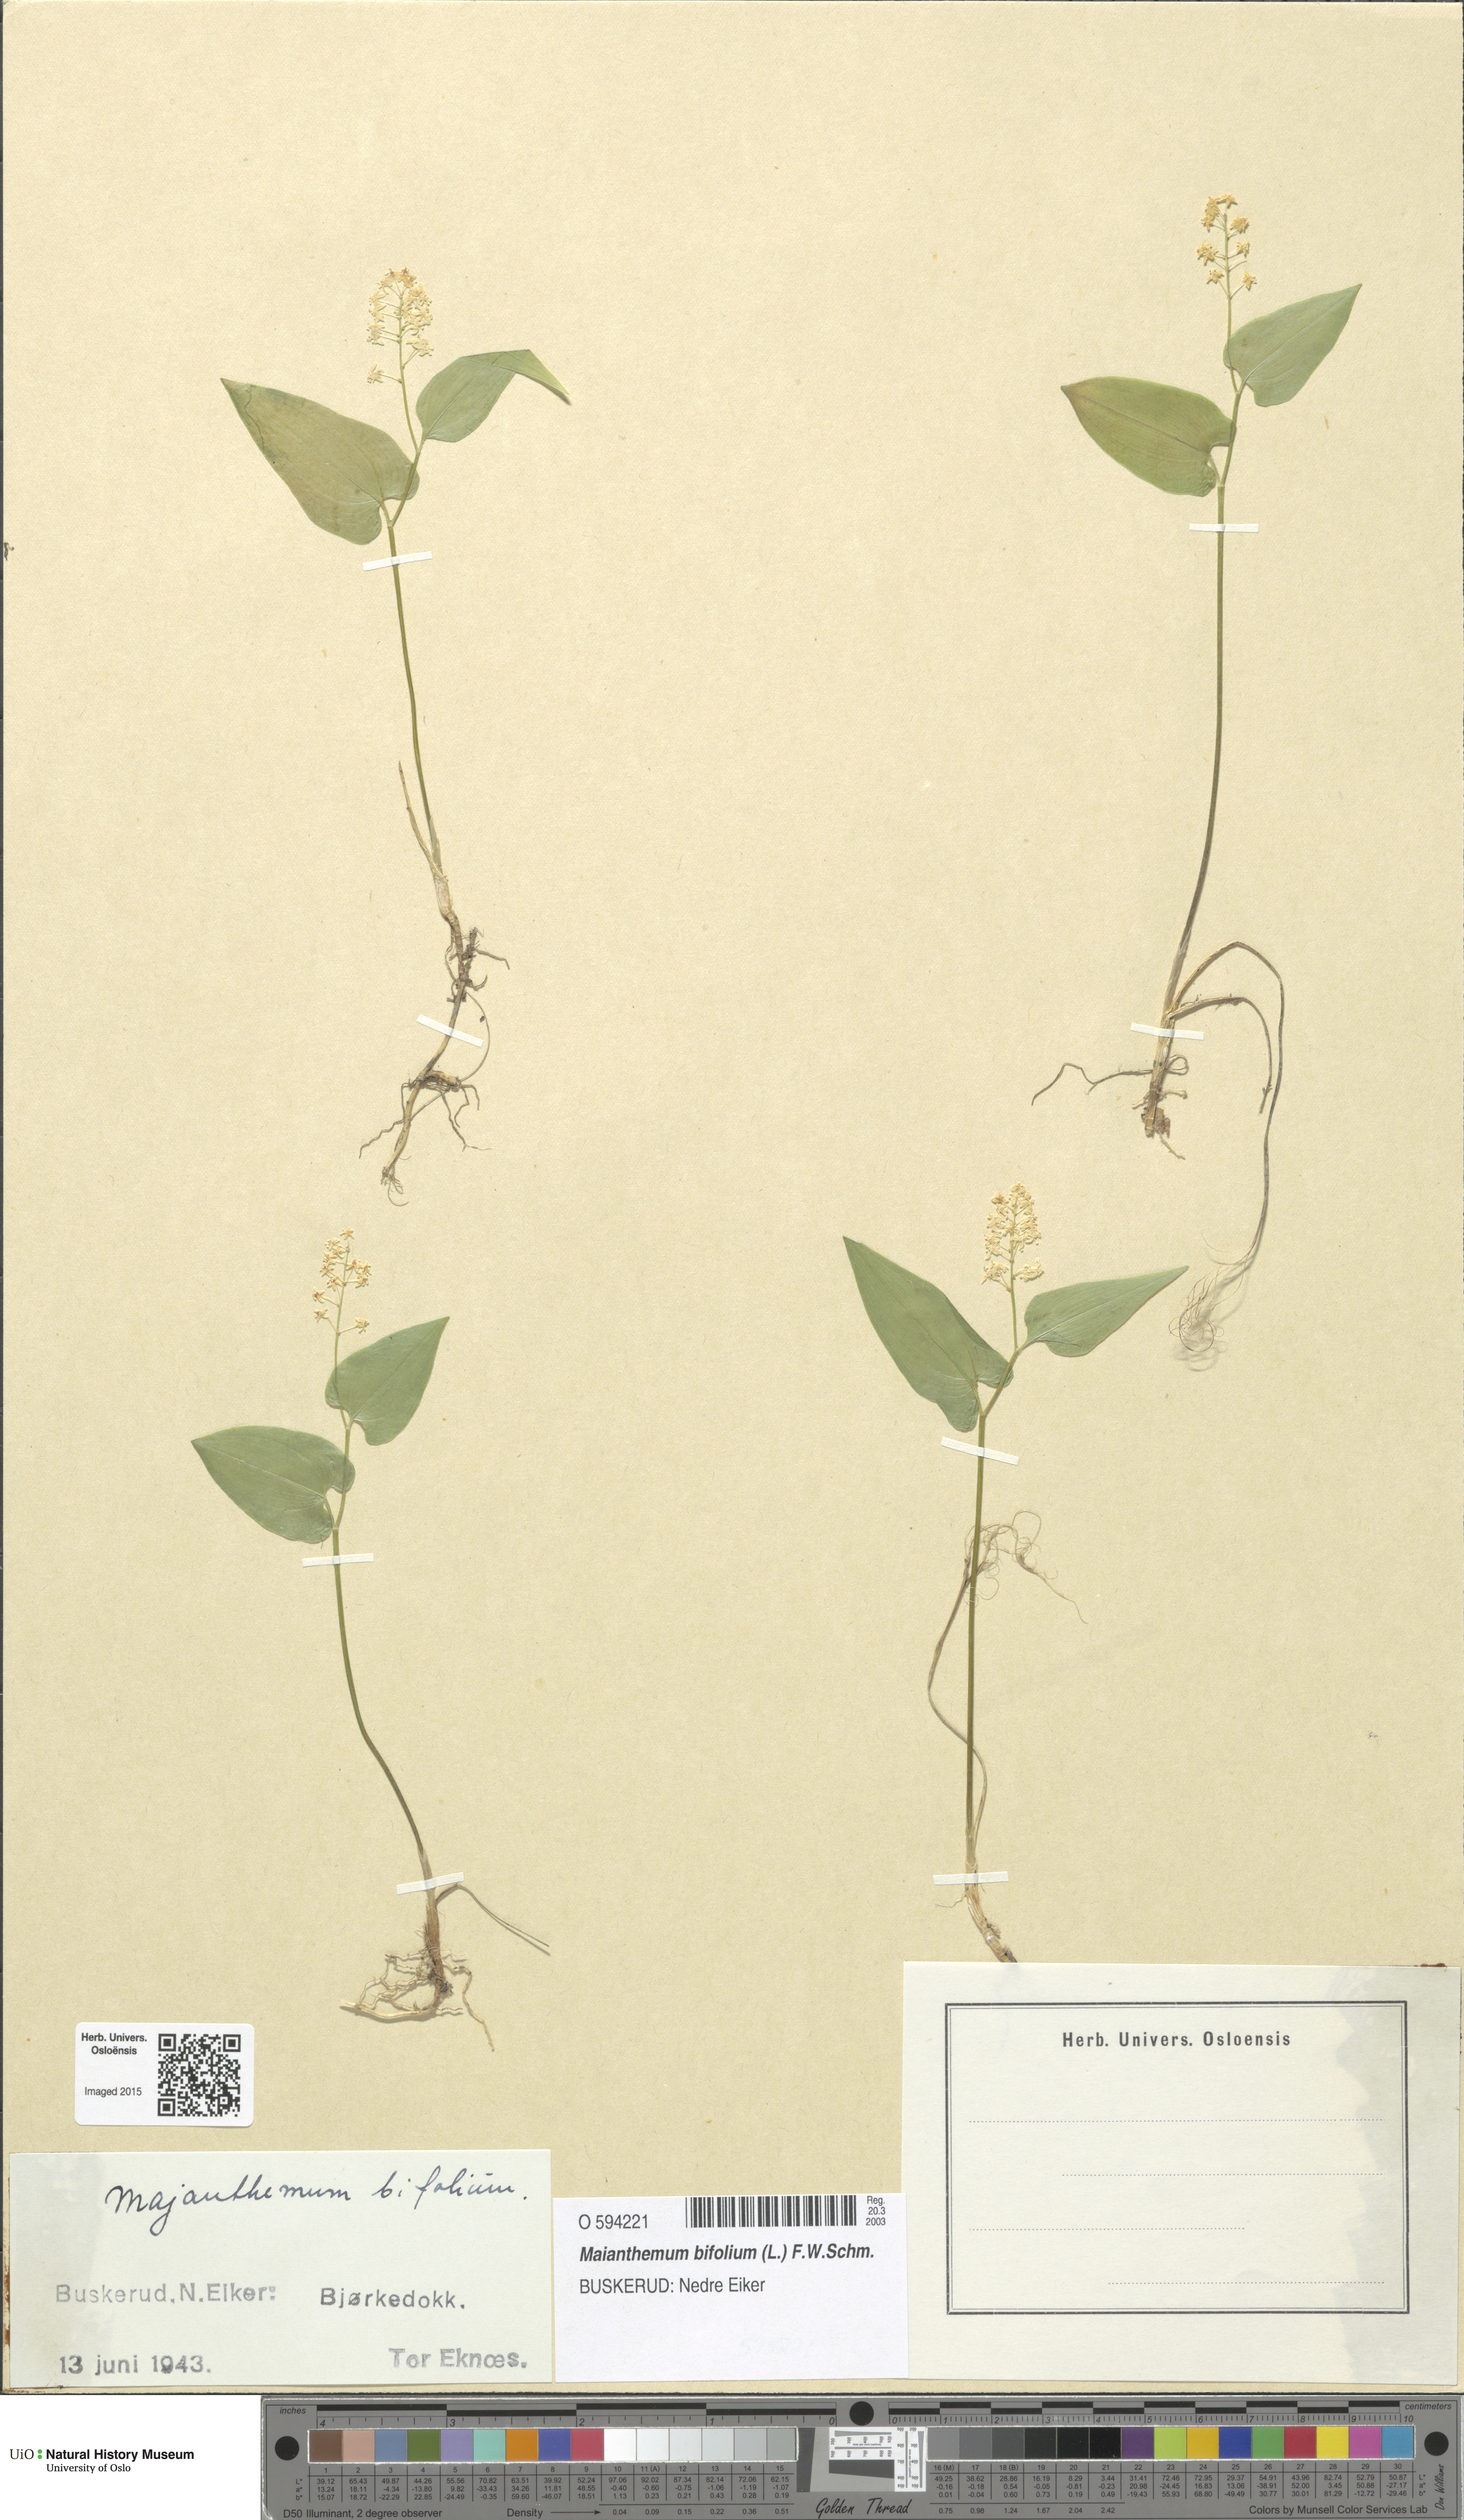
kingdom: Plantae
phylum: Tracheophyta
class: Liliopsida
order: Asparagales
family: Asparagaceae
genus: Maianthemum
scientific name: Maianthemum bifolium
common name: May lily
